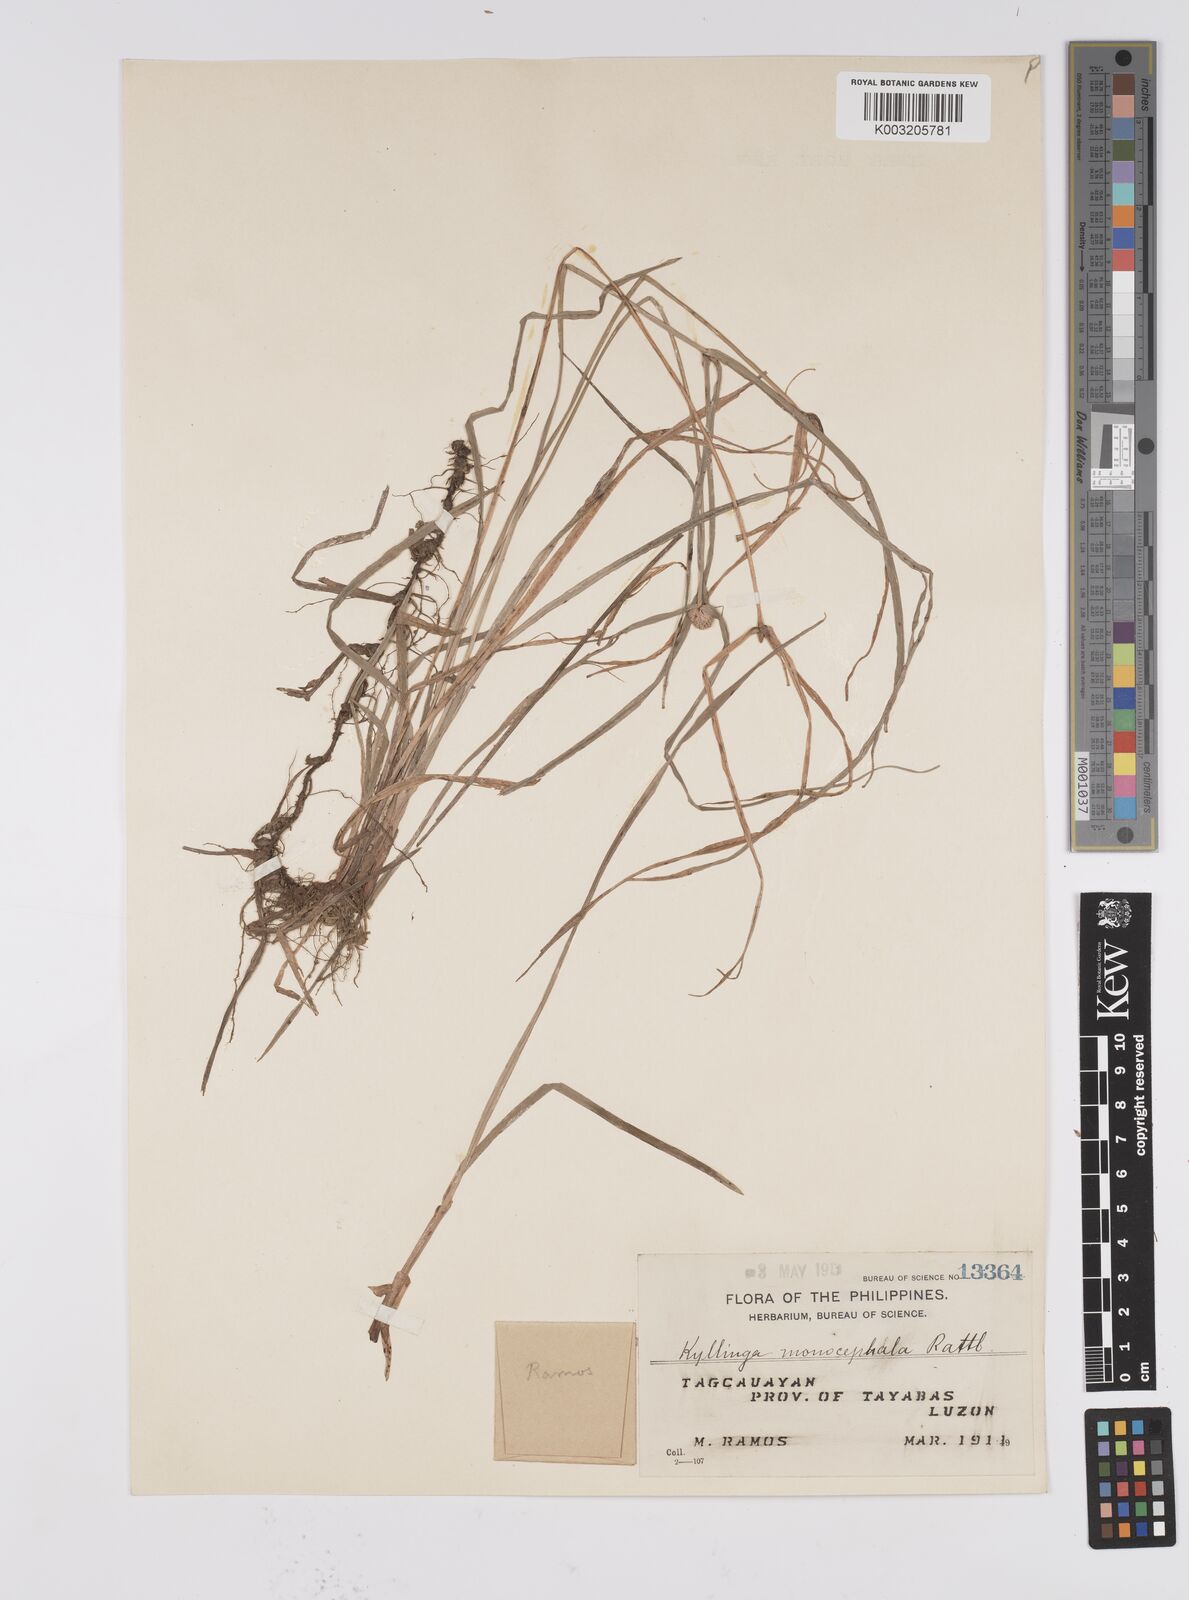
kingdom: Plantae
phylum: Tracheophyta
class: Liliopsida
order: Poales
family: Cyperaceae
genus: Cyperus
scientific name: Cyperus nemoralis
